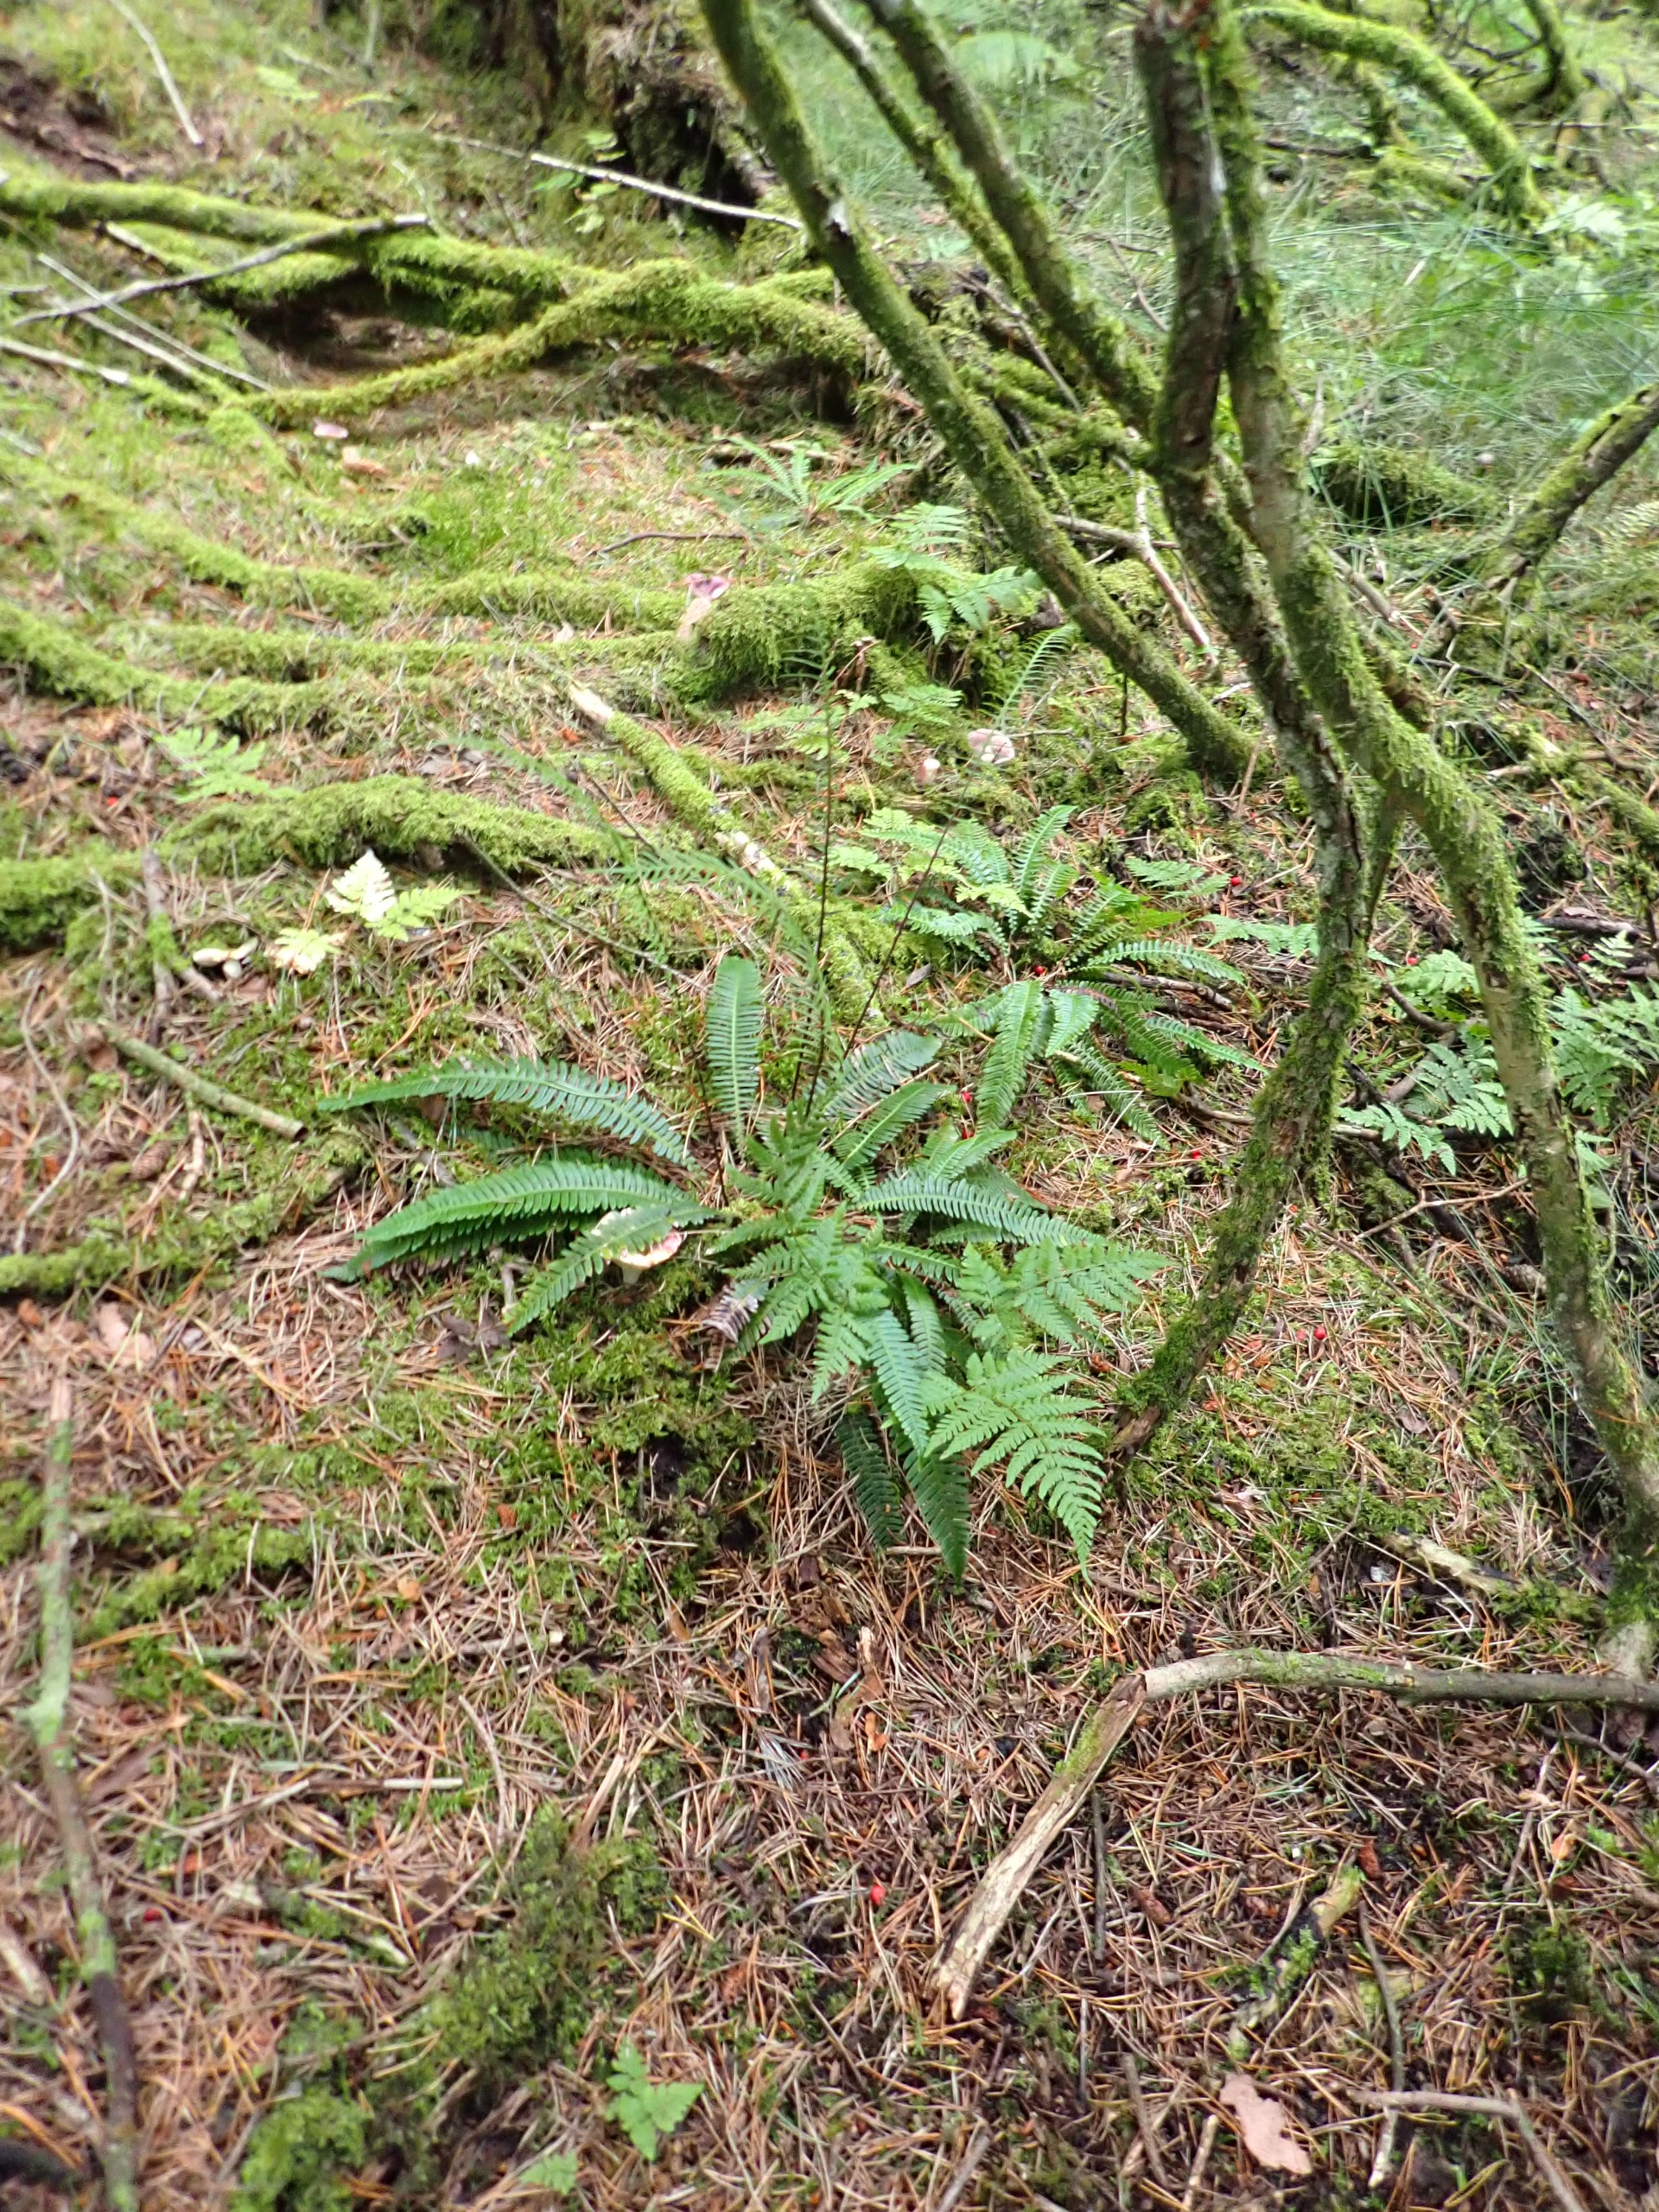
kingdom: Plantae
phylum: Tracheophyta
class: Polypodiopsida
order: Polypodiales
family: Blechnaceae
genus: Struthiopteris
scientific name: Struthiopteris spicant
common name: Kambregne
